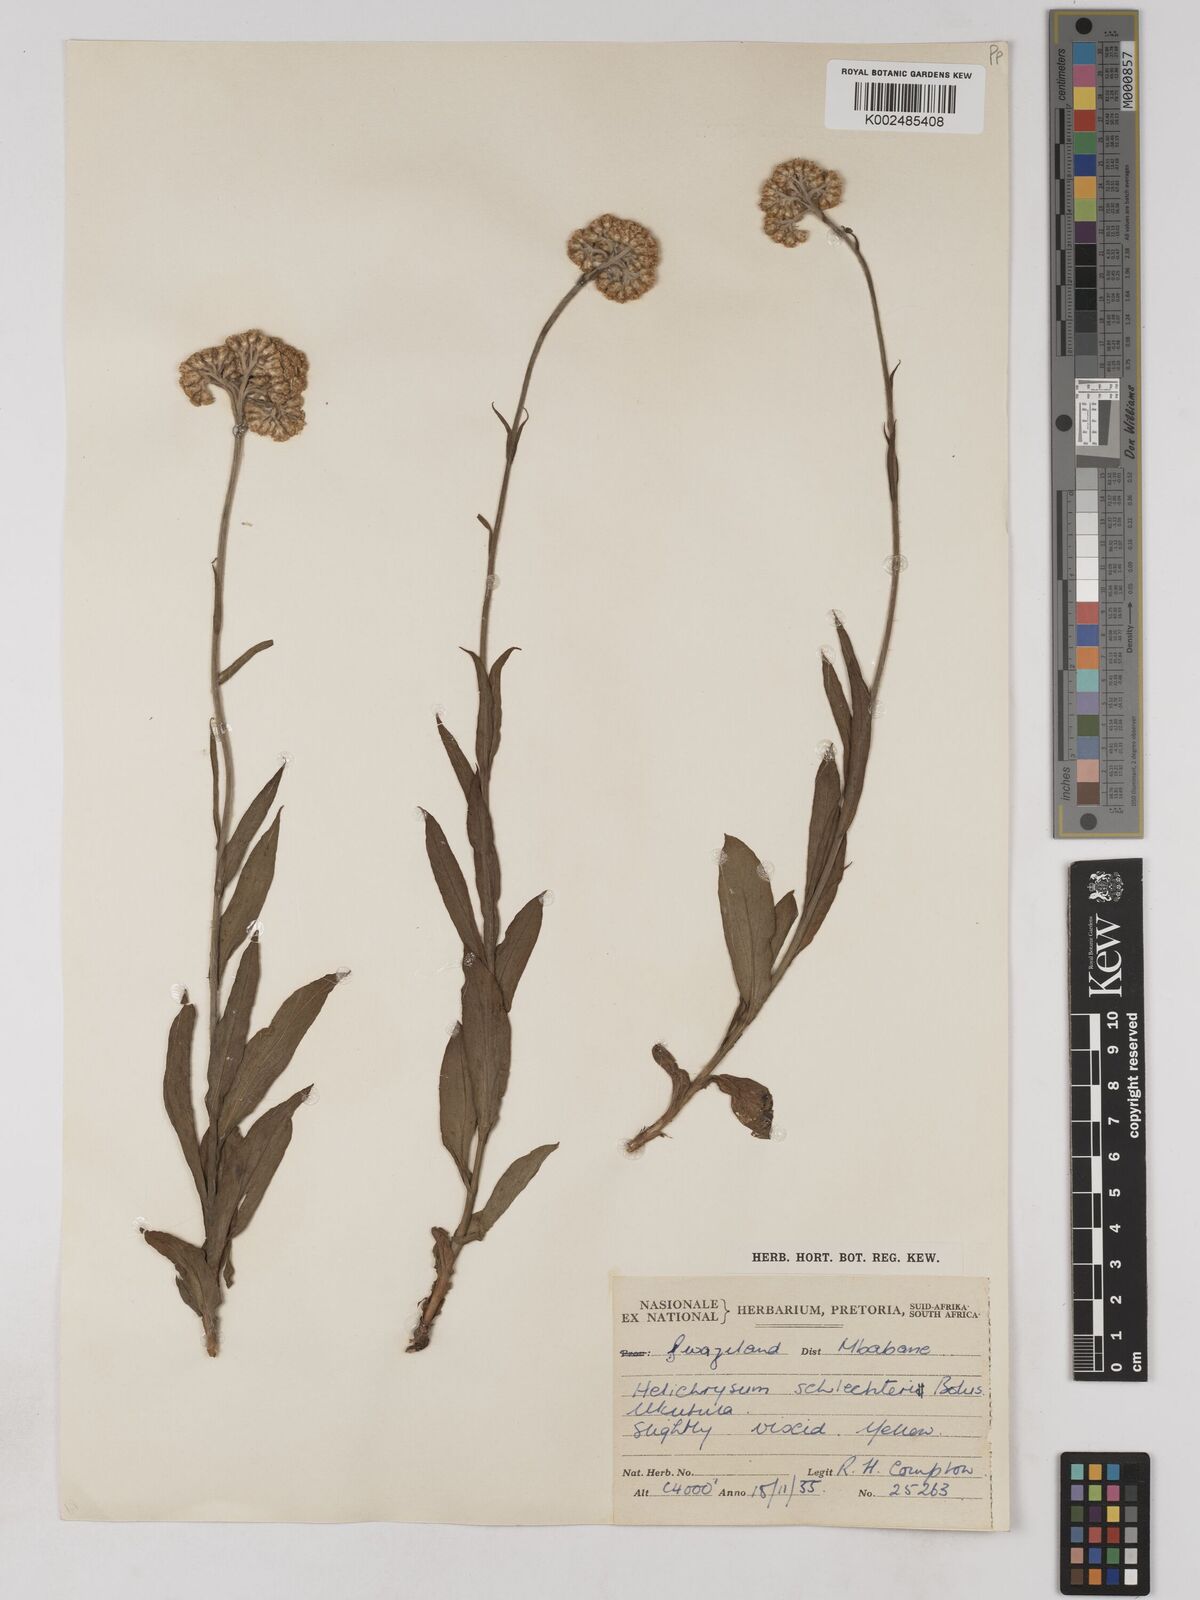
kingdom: Plantae
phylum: Tracheophyta
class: Magnoliopsida
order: Asterales
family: Asteraceae
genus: Helichrysum
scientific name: Helichrysum acutatum
